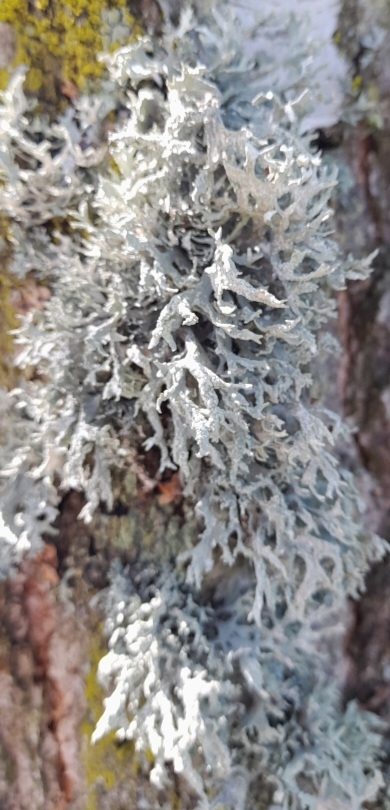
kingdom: Fungi
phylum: Ascomycota
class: Lecanoromycetes
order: Lecanorales
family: Parmeliaceae
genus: Evernia
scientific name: Evernia prunastri
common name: Almindelig slåenlav
